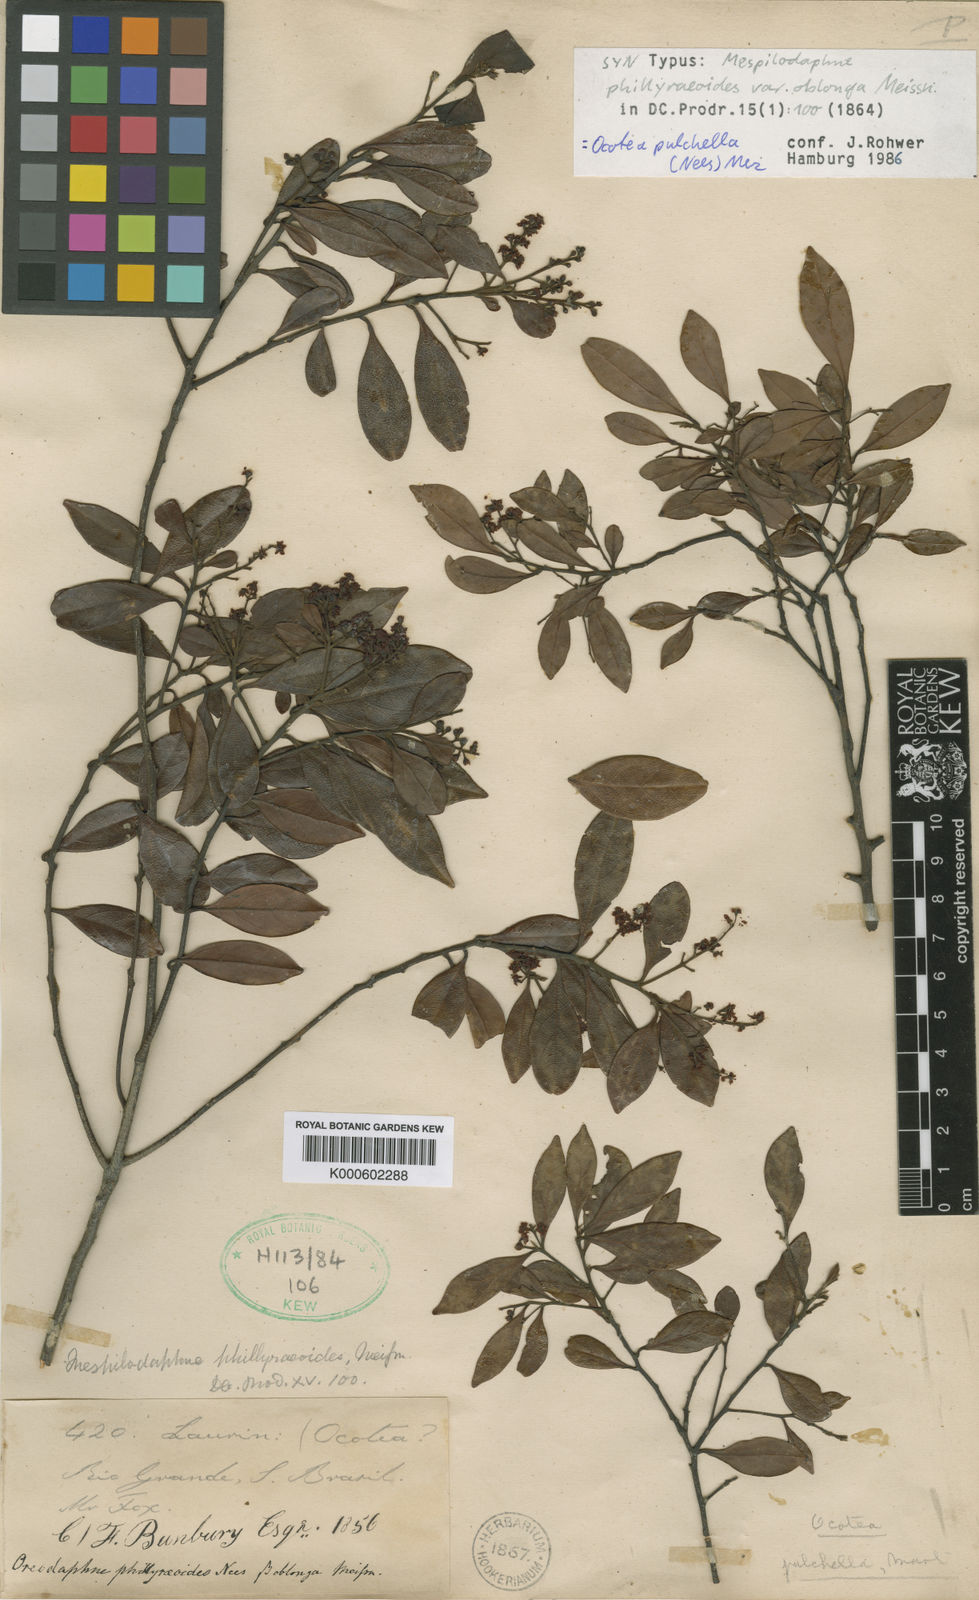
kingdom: Plantae
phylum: Tracheophyta
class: Magnoliopsida
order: Laurales
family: Lauraceae
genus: Mespilodaphne
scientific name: Mespilodaphne pulchella
